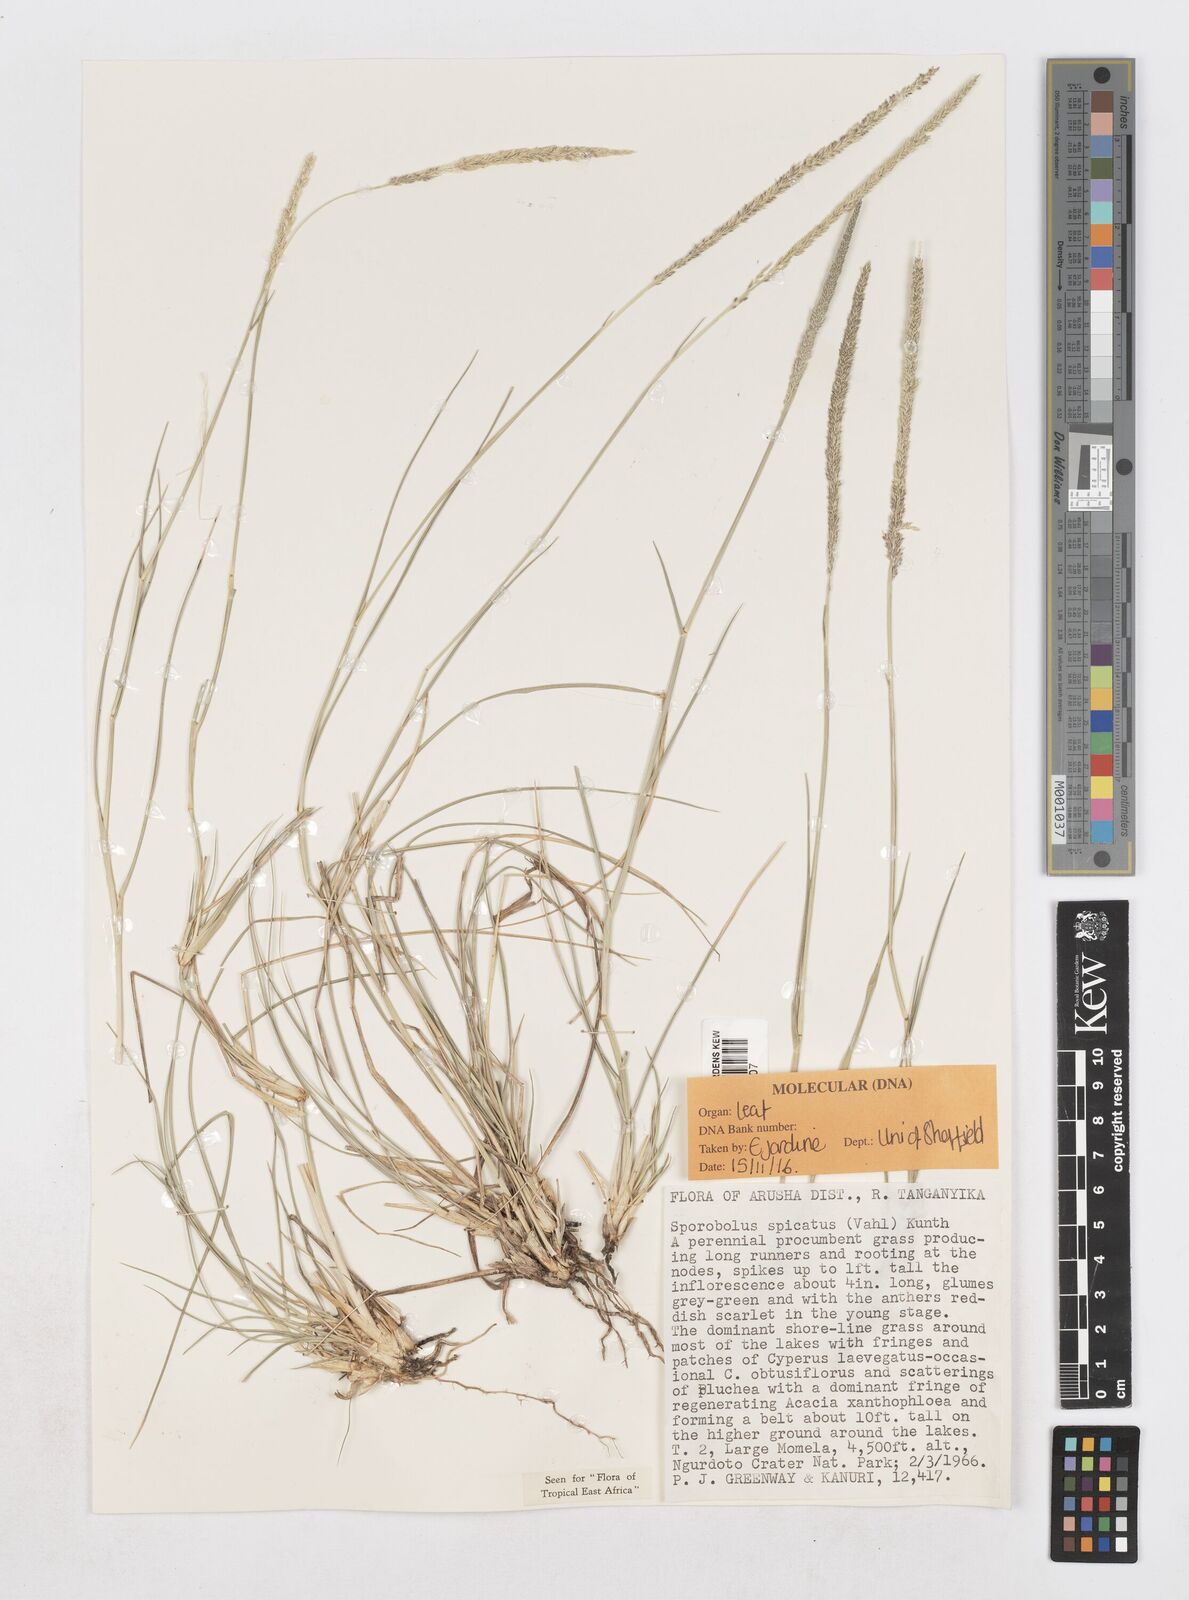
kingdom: Plantae
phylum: Tracheophyta
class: Liliopsida
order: Poales
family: Poaceae
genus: Sporobolus
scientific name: Sporobolus spicatus
